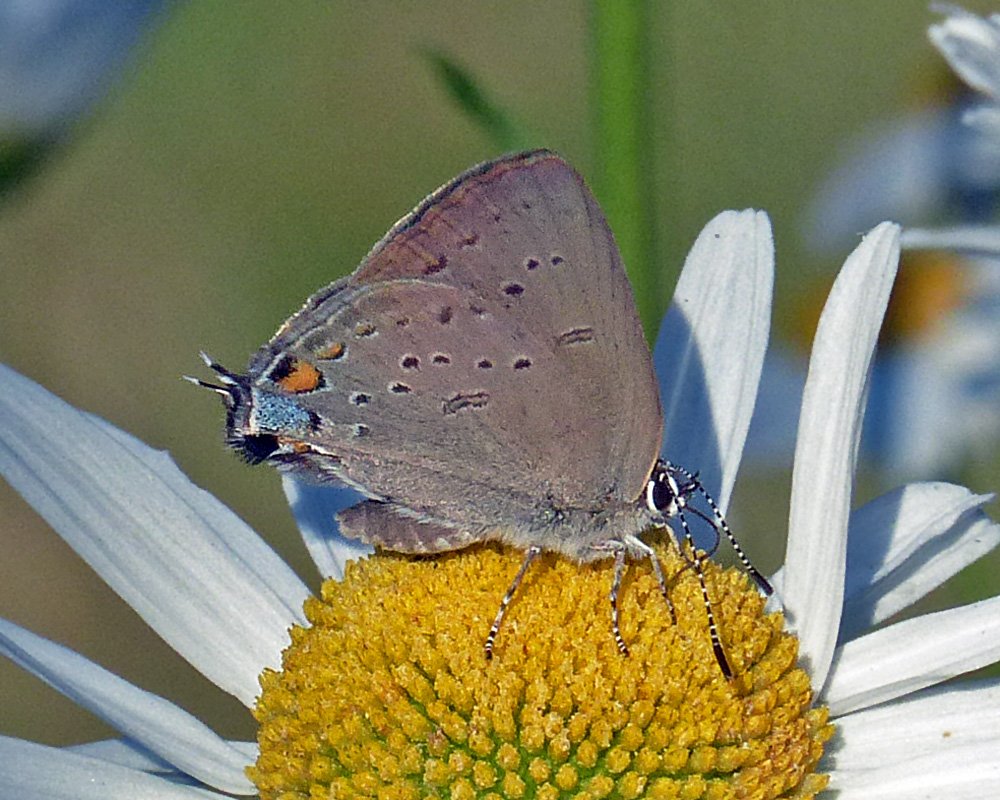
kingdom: Animalia
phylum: Arthropoda
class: Insecta
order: Lepidoptera
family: Lycaenidae
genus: Strymon
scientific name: Strymon sylvinus
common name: Sylvan Hairstreak
